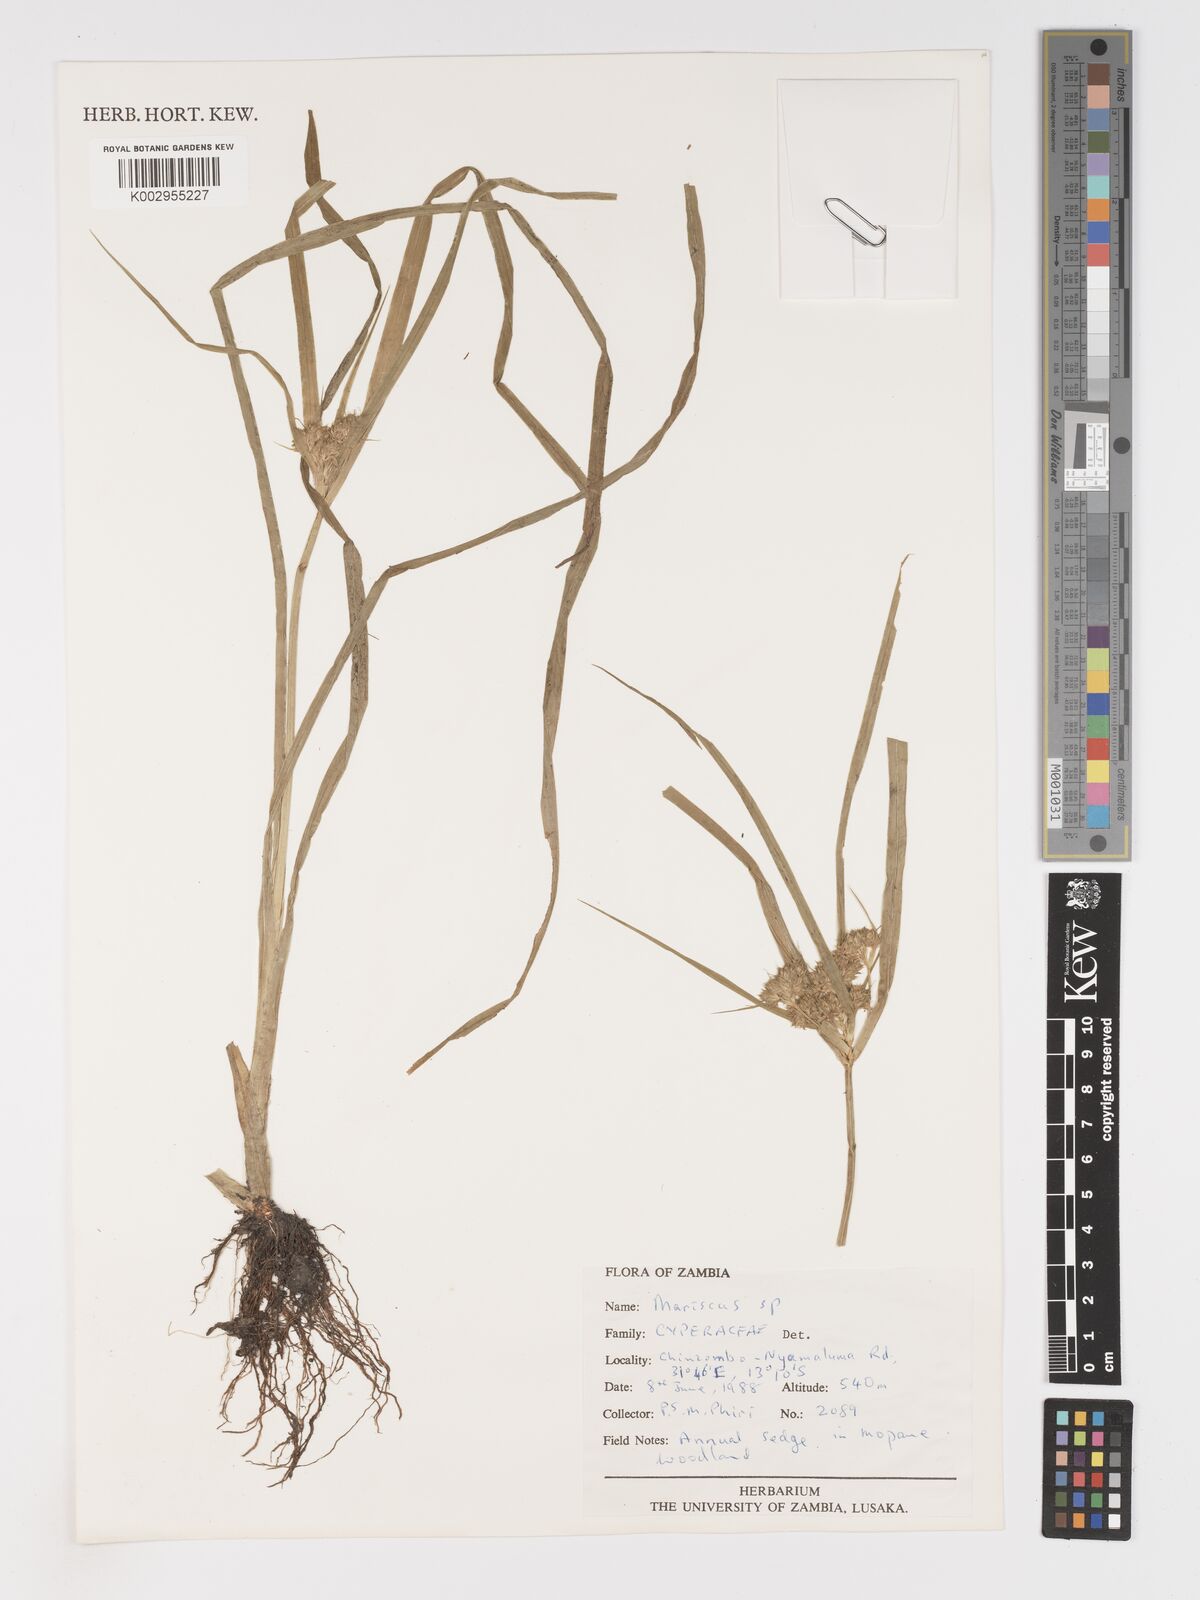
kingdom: Plantae
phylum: Tracheophyta
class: Liliopsida
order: Poales
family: Cyperaceae
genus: Cyperus
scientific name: Cyperus
